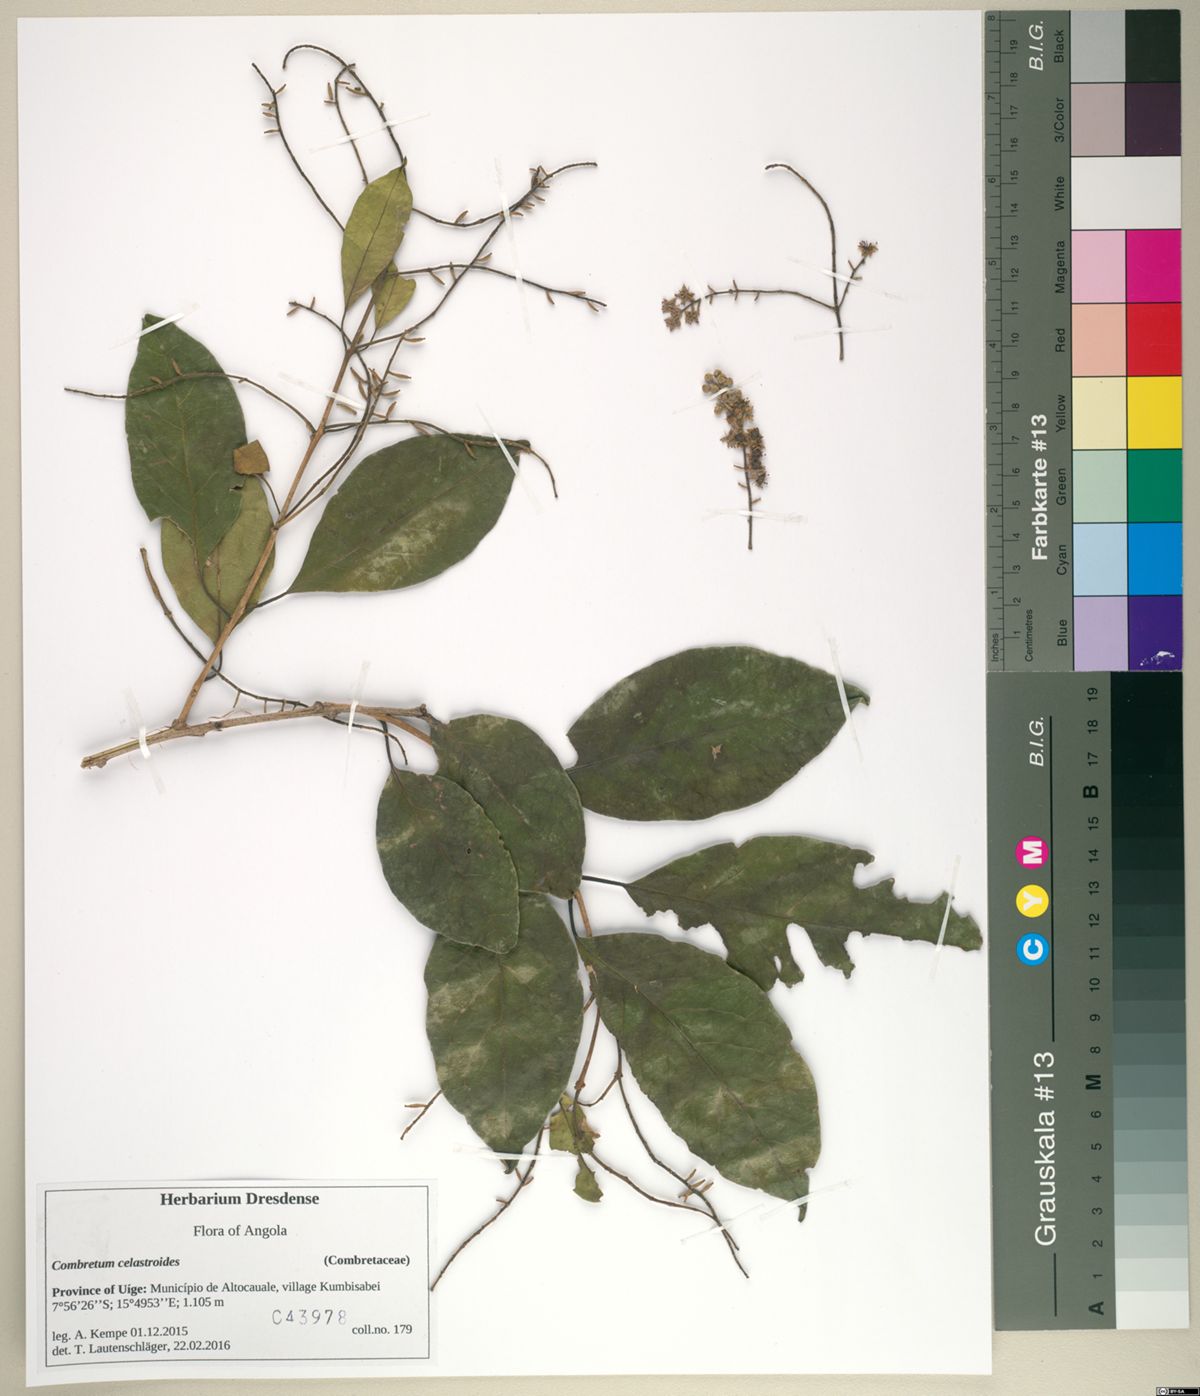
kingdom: Plantae
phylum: Tracheophyta
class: Magnoliopsida
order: Myrtales
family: Combretaceae
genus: Combretum
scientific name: Combretum celastroides
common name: Jesse-bush combretum
